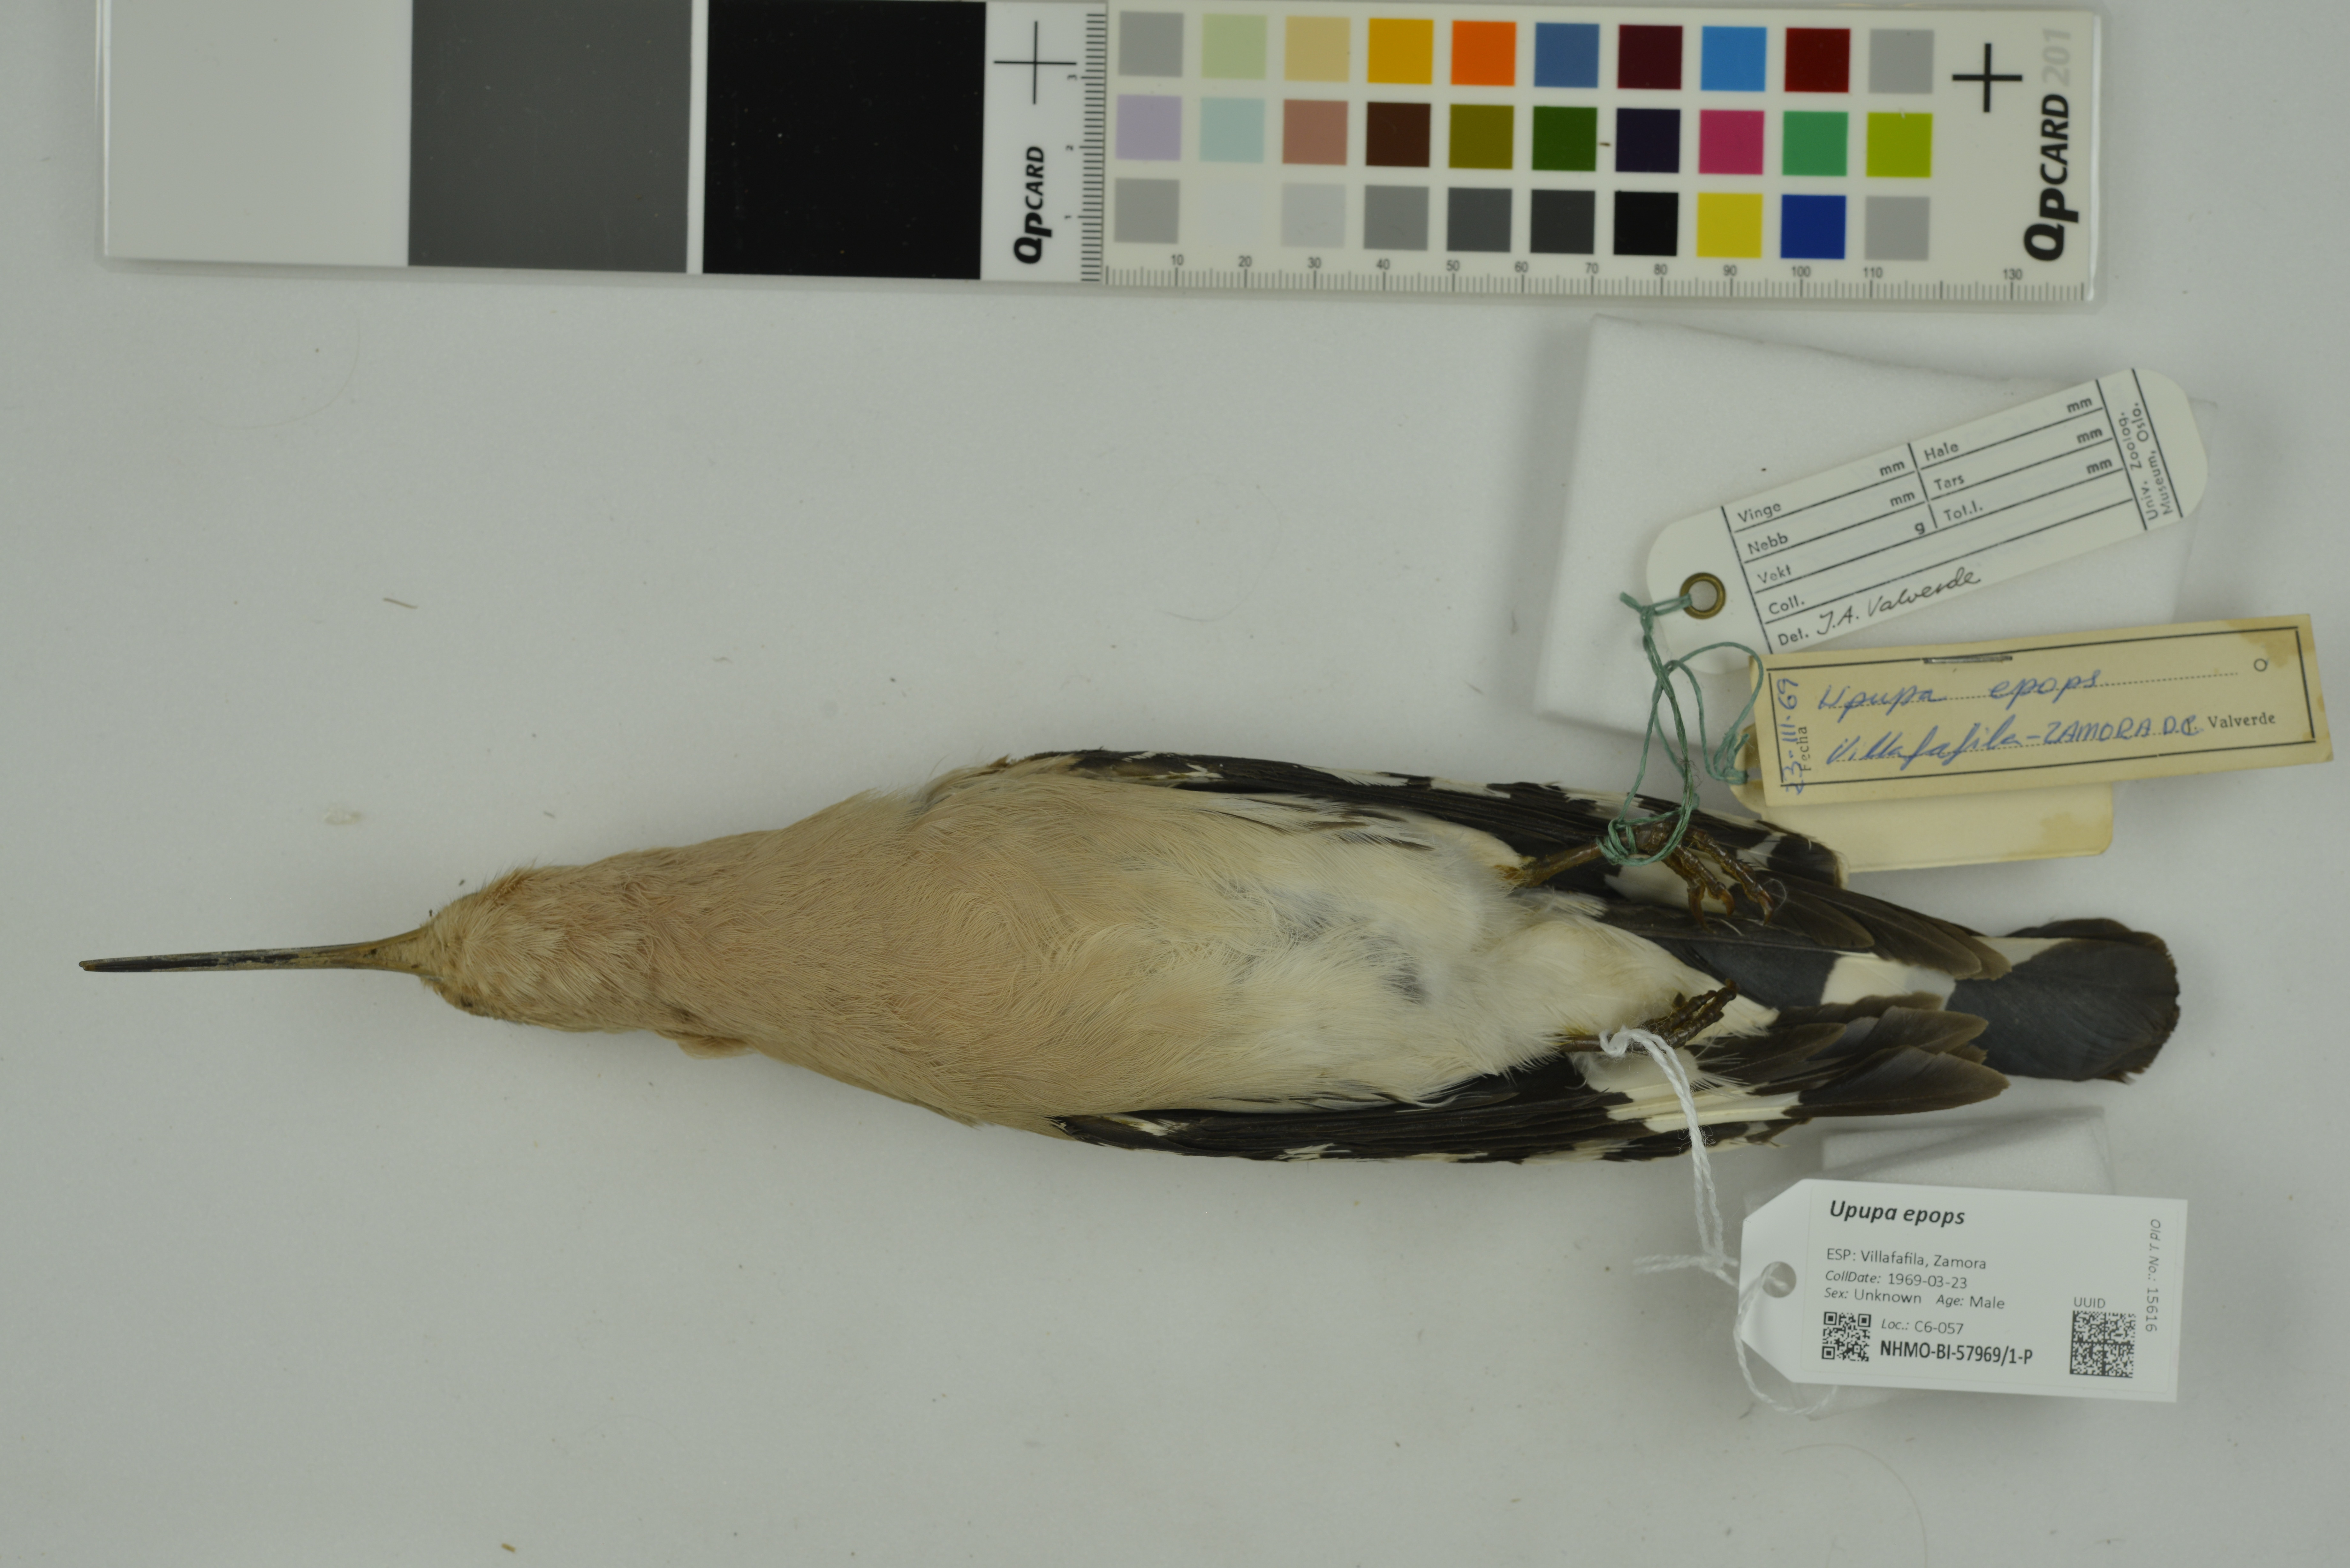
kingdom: Animalia
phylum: Chordata
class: Aves
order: Bucerotiformes
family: Upupidae
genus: Upupa
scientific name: Upupa epops
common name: Eurasian hoopoe
